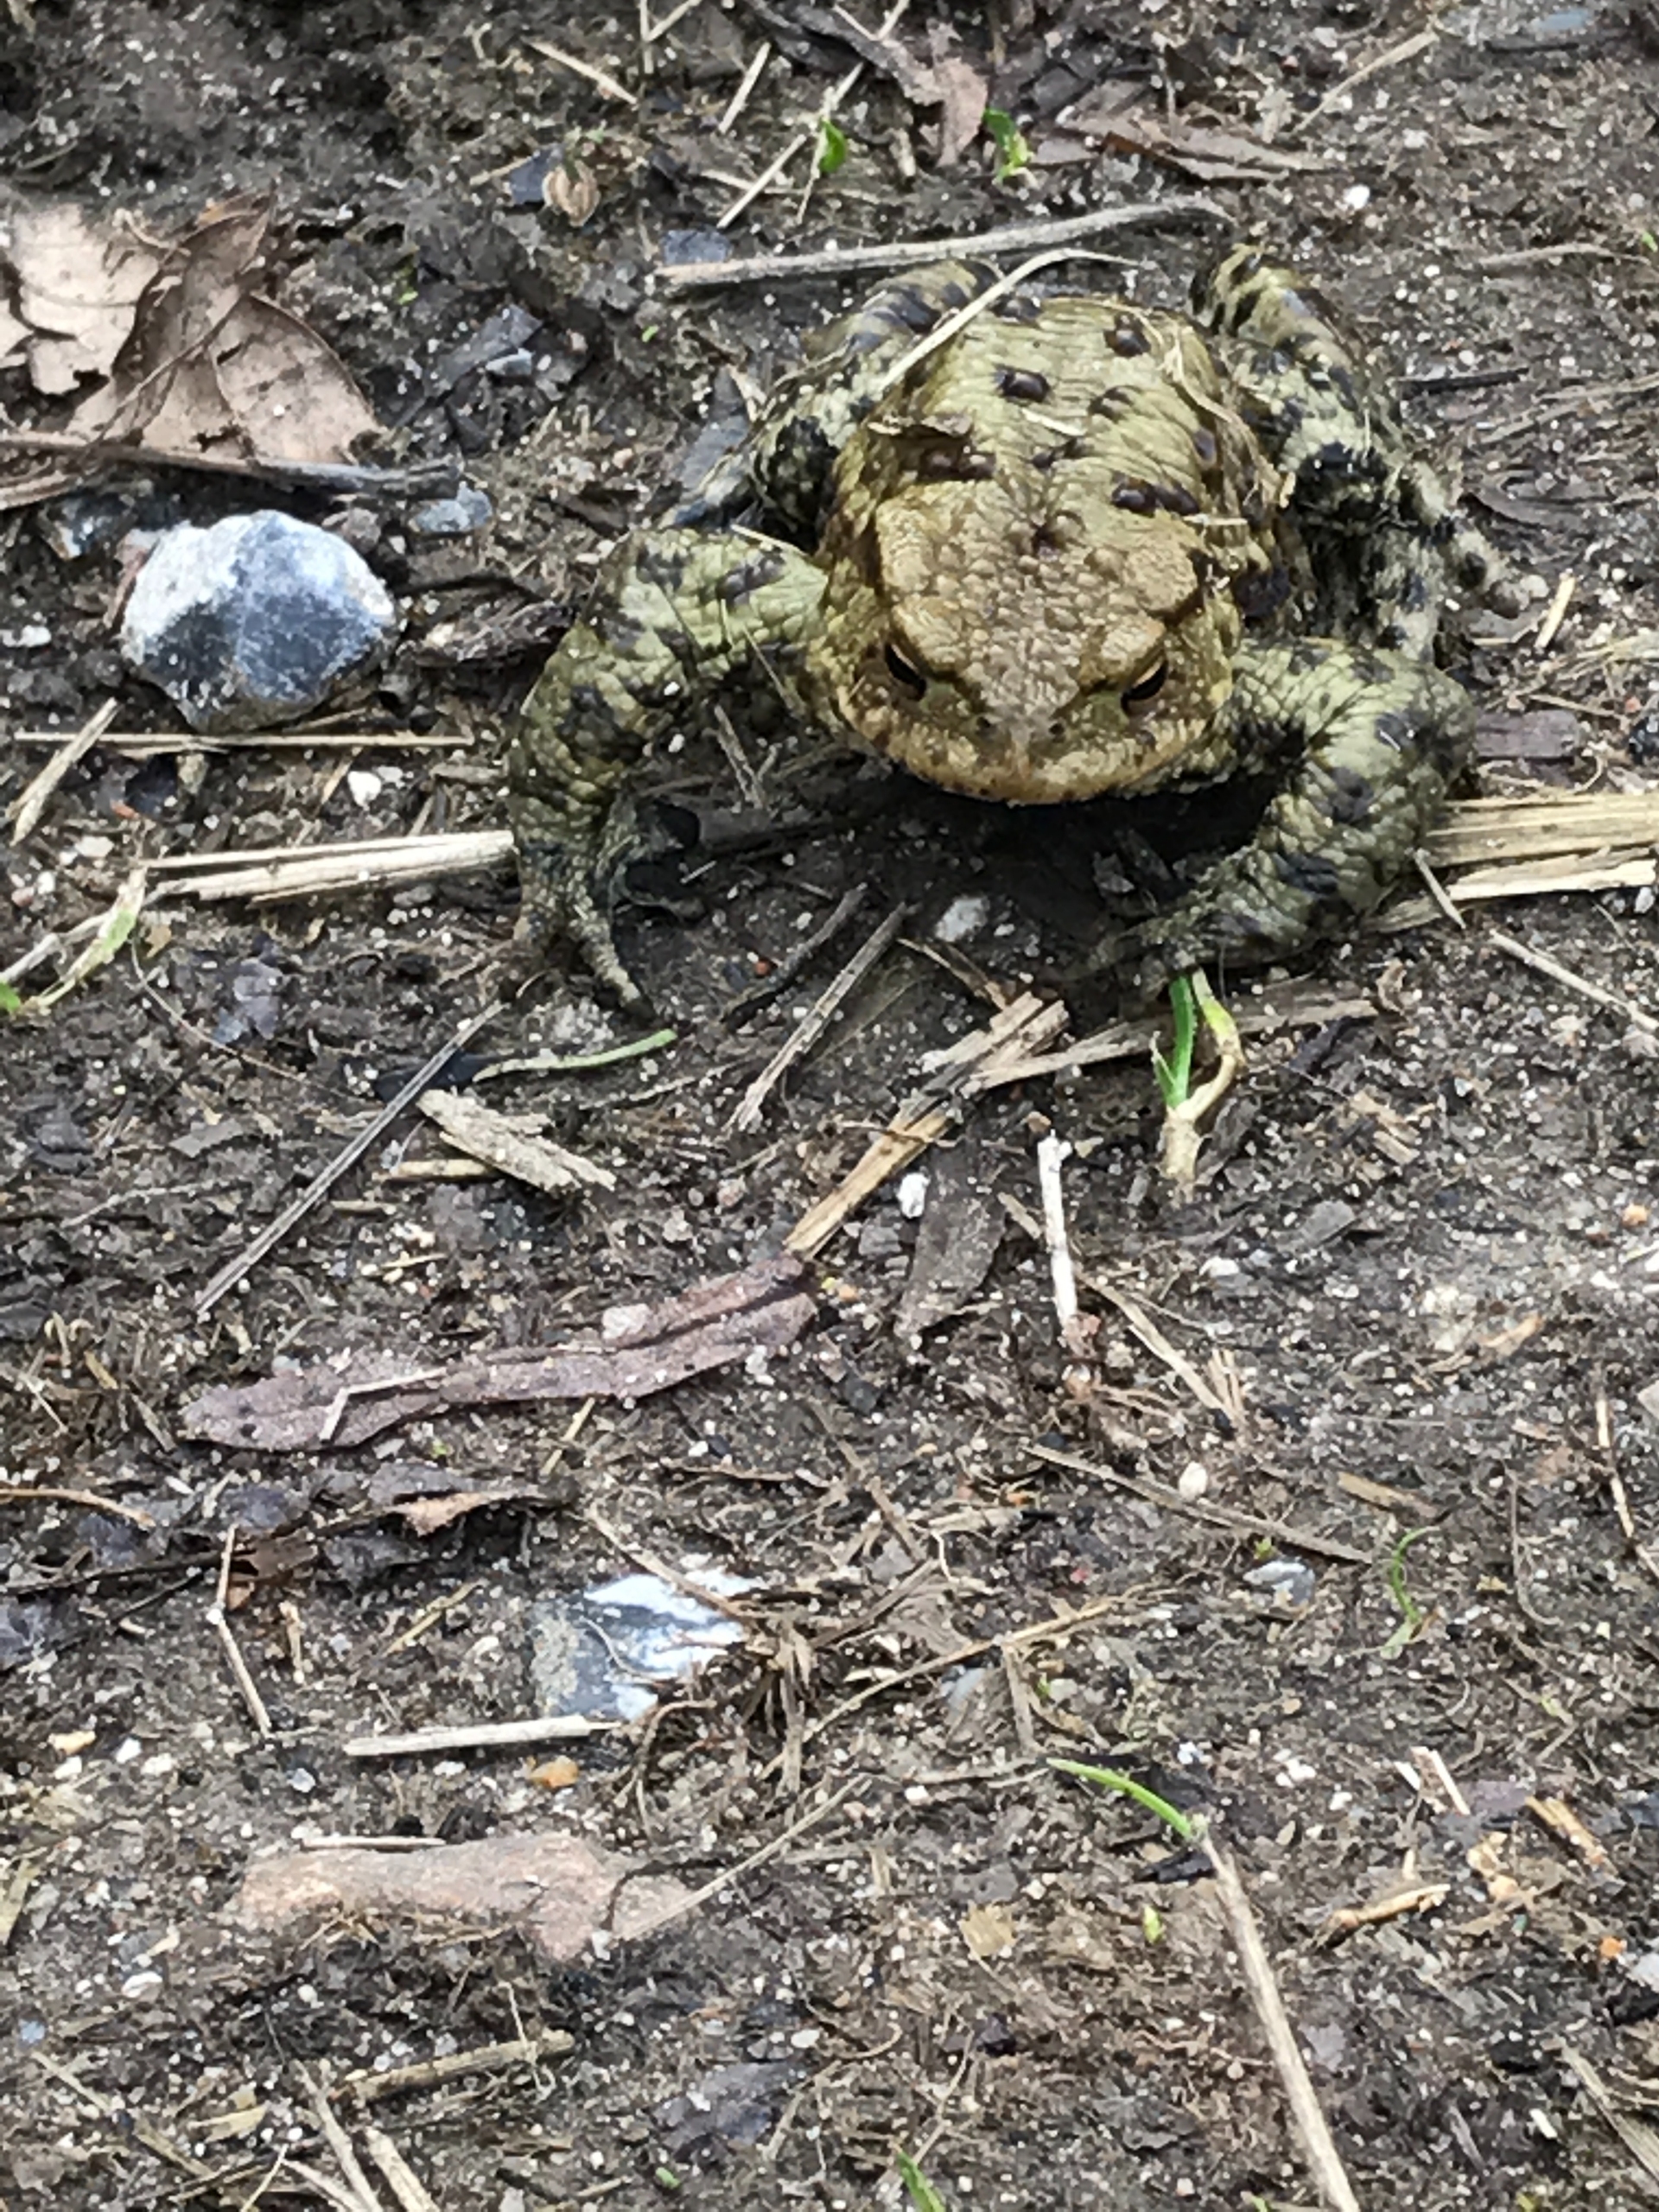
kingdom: Animalia
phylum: Chordata
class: Amphibia
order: Anura
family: Bufonidae
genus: Bufo
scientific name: Bufo bufo
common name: Skrubtudse
